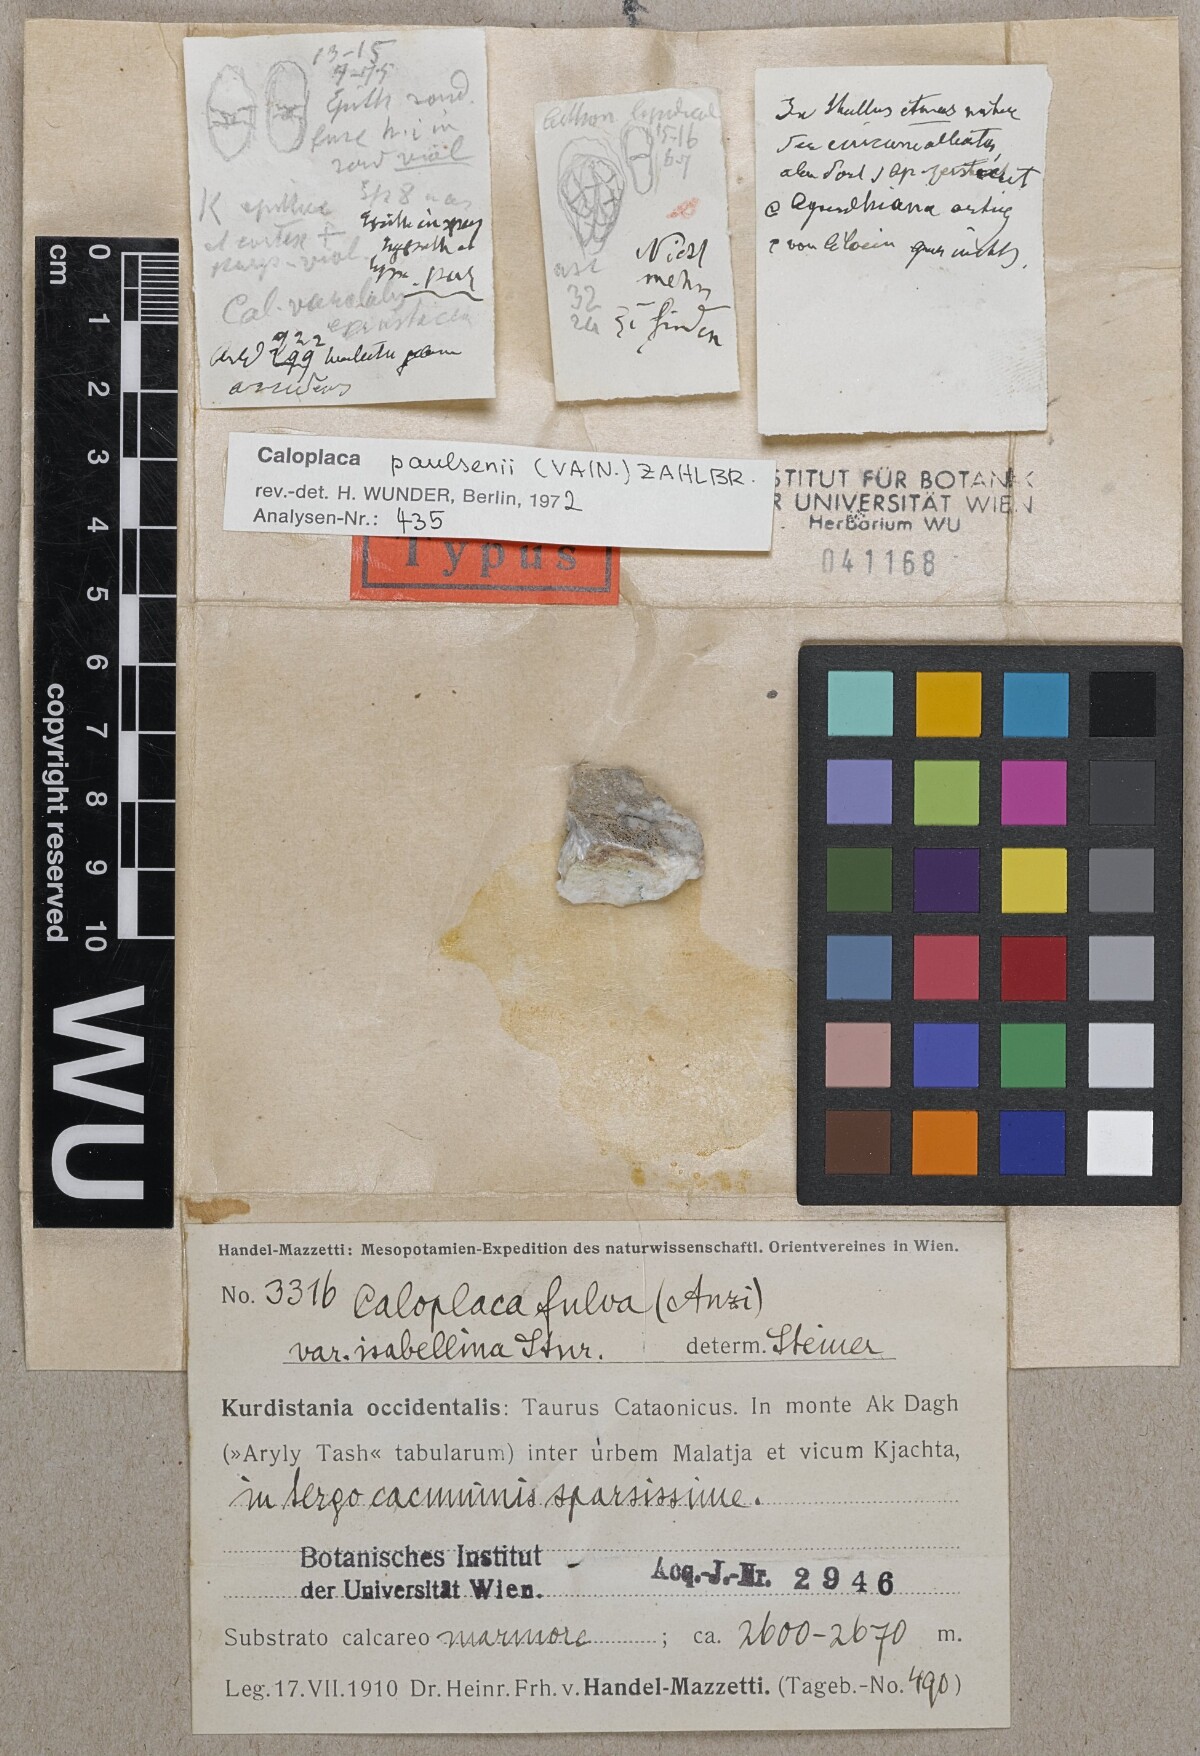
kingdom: Fungi
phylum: Ascomycota
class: Lecanoromycetes
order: Teloschistales
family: Teloschistaceae
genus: Caloplaca
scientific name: Caloplaca fulva
